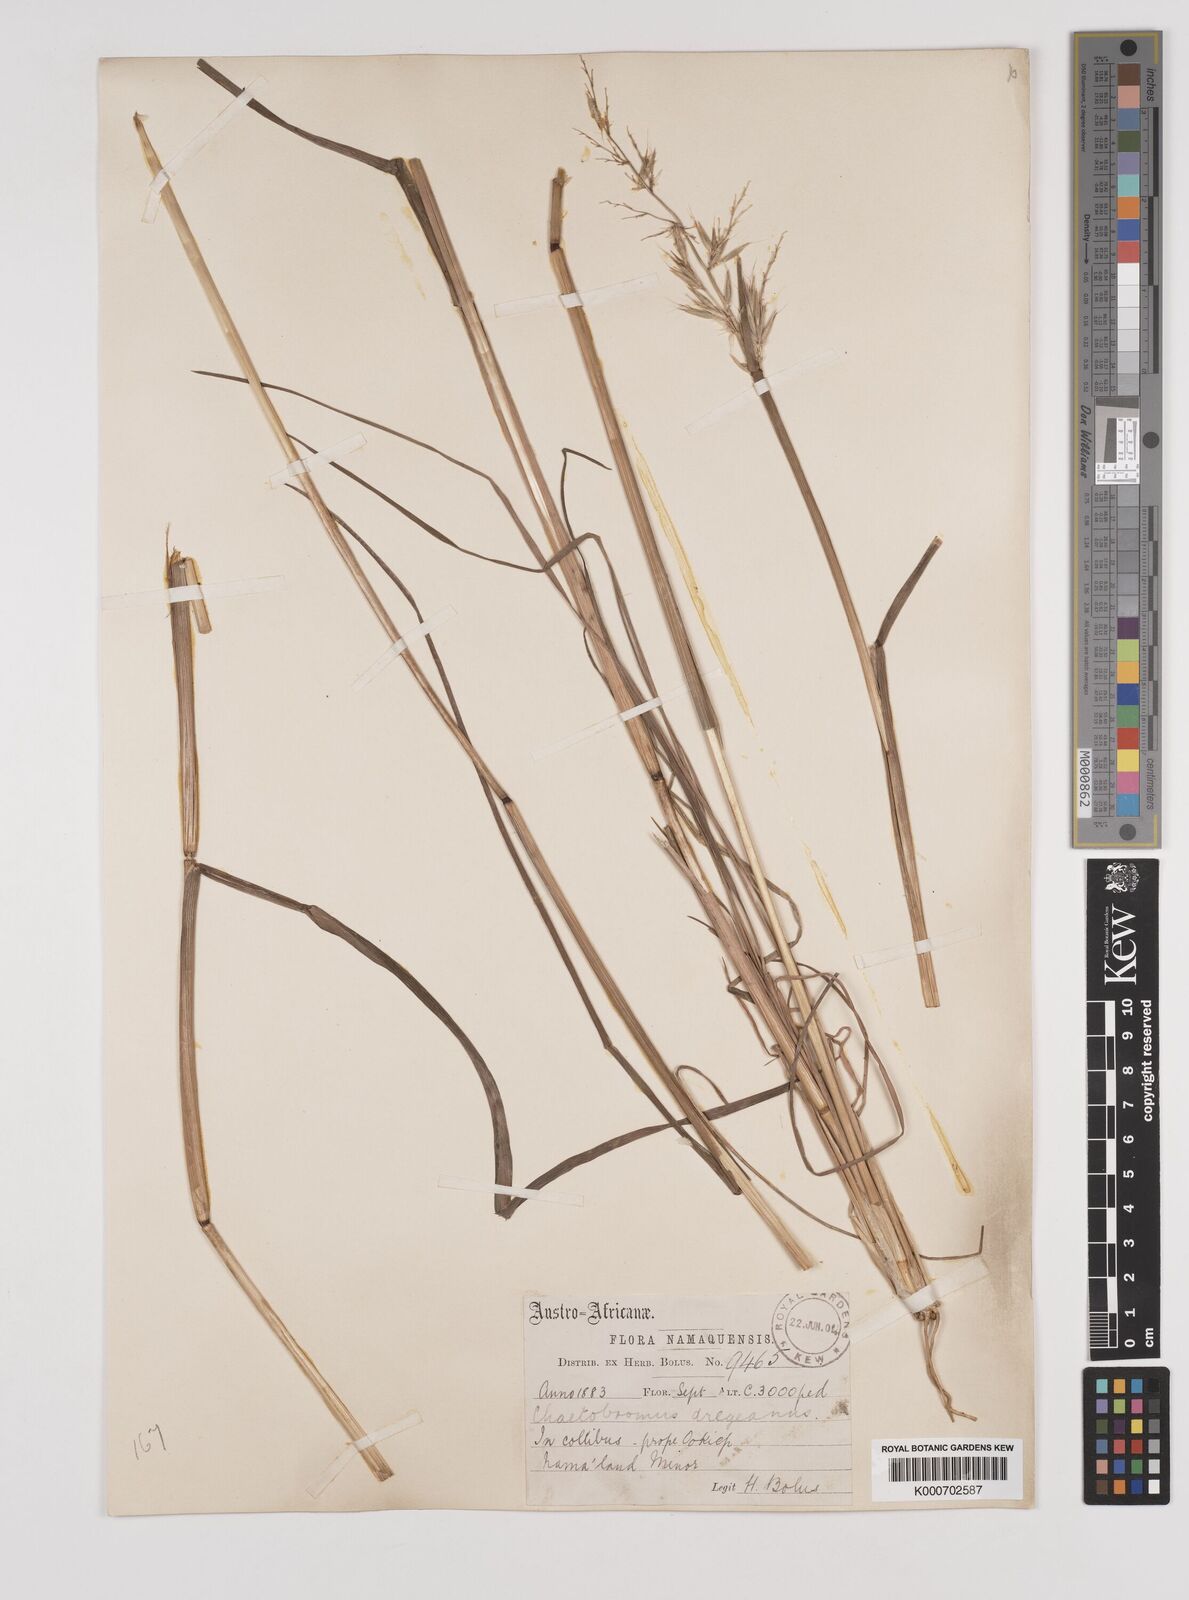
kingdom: Plantae
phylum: Tracheophyta
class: Liliopsida
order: Poales
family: Poaceae
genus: Chaetobromus
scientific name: Chaetobromus involucratus
